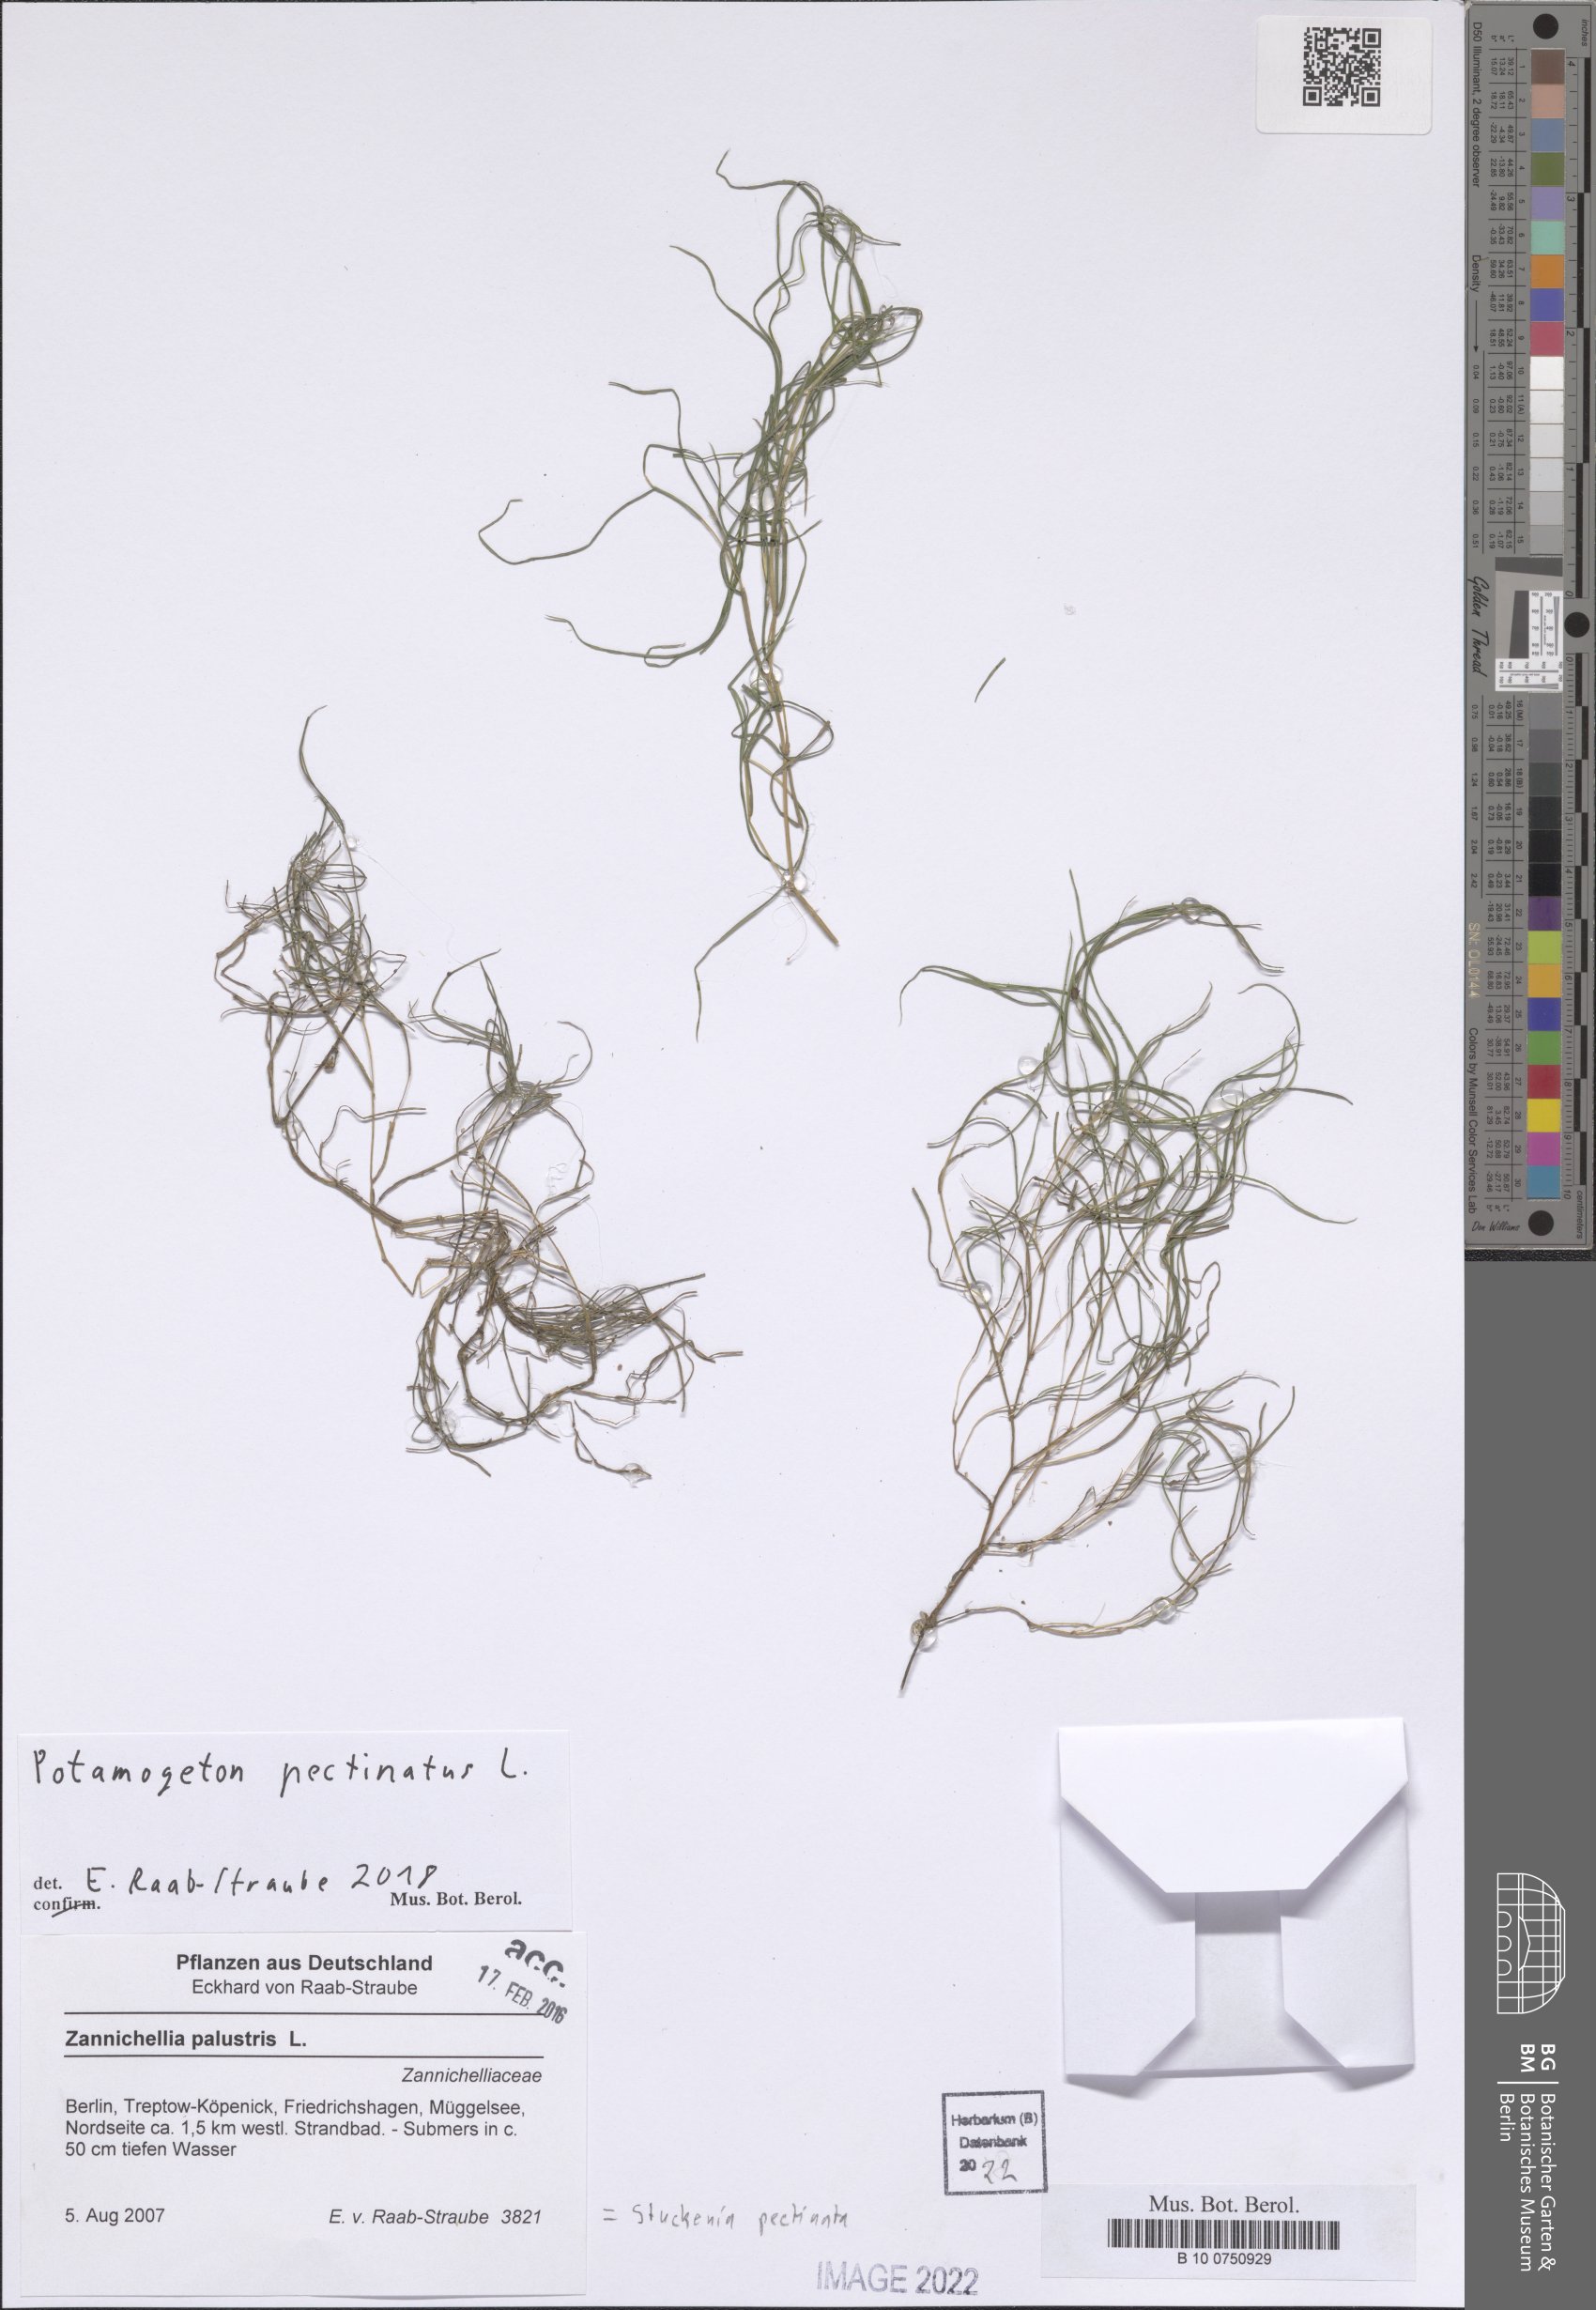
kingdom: Plantae
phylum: Tracheophyta
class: Liliopsida
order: Alismatales
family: Potamogetonaceae
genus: Stuckenia
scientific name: Stuckenia pectinata
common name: Sago pondweed
